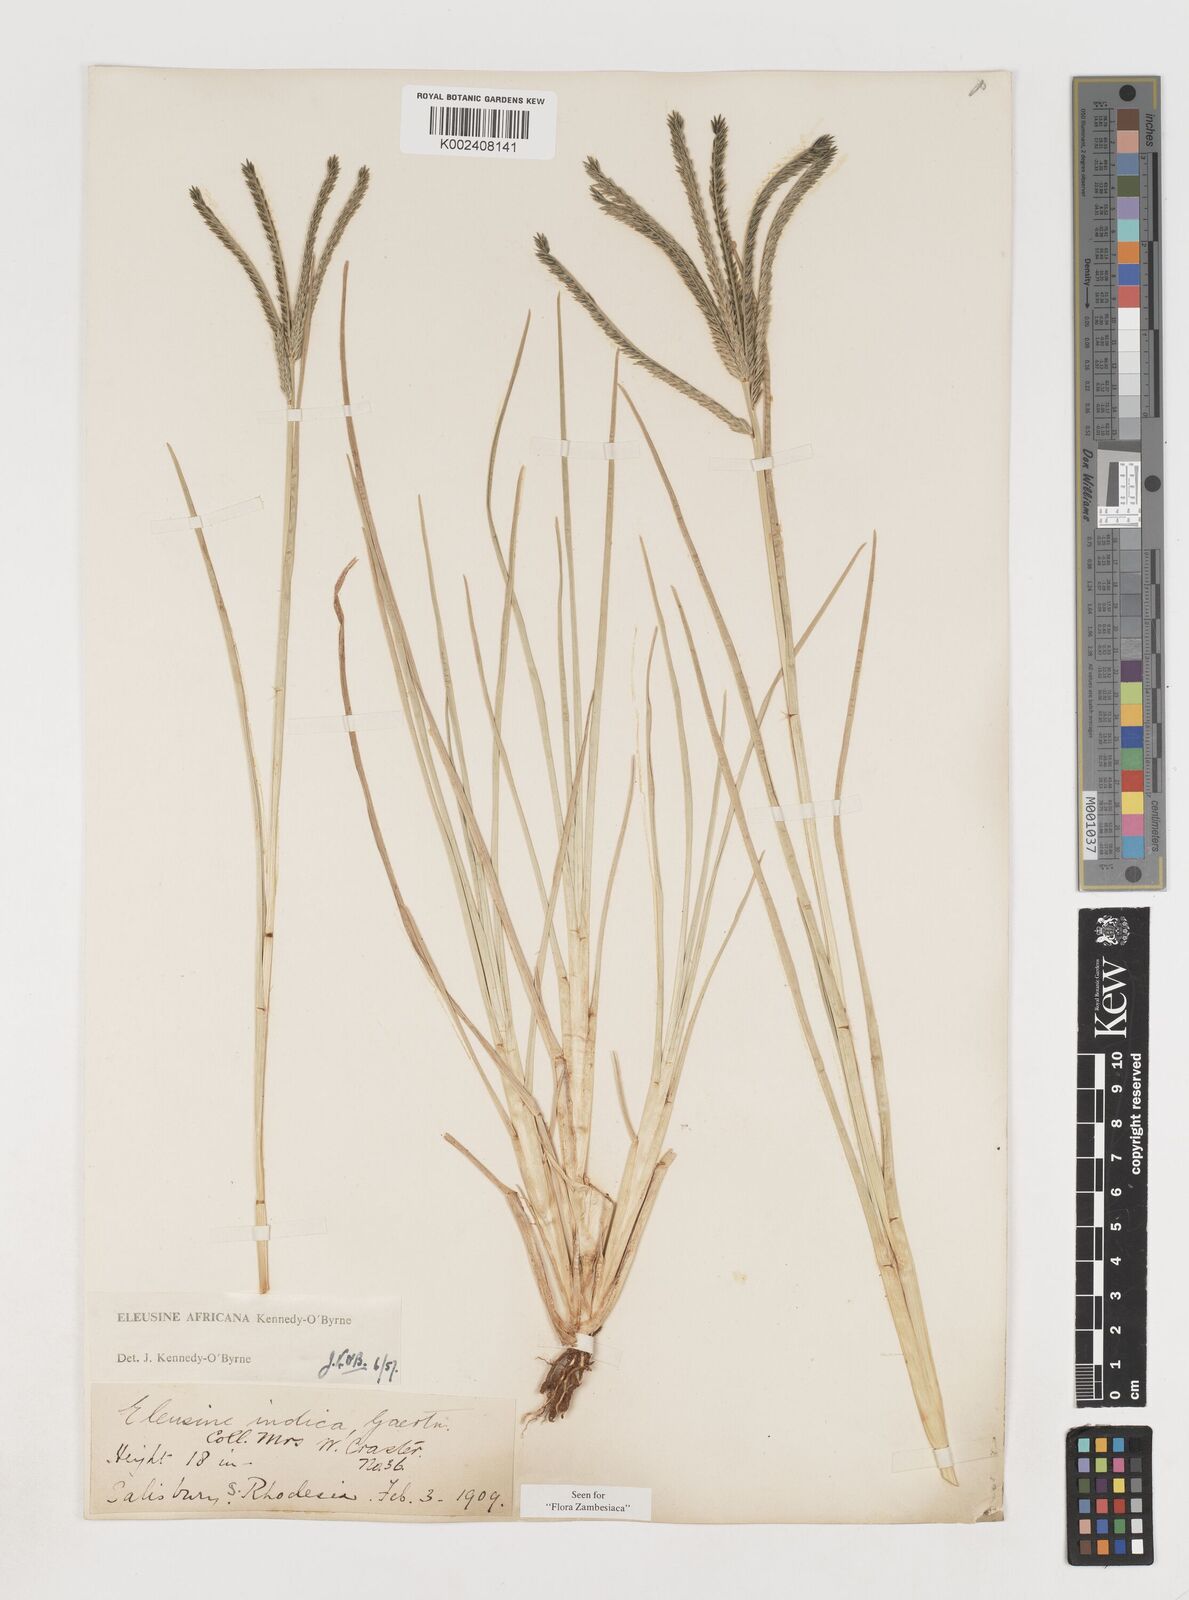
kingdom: Plantae
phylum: Tracheophyta
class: Liliopsida
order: Poales
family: Poaceae
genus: Eleusine
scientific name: Eleusine africana
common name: Wild african finger millet
